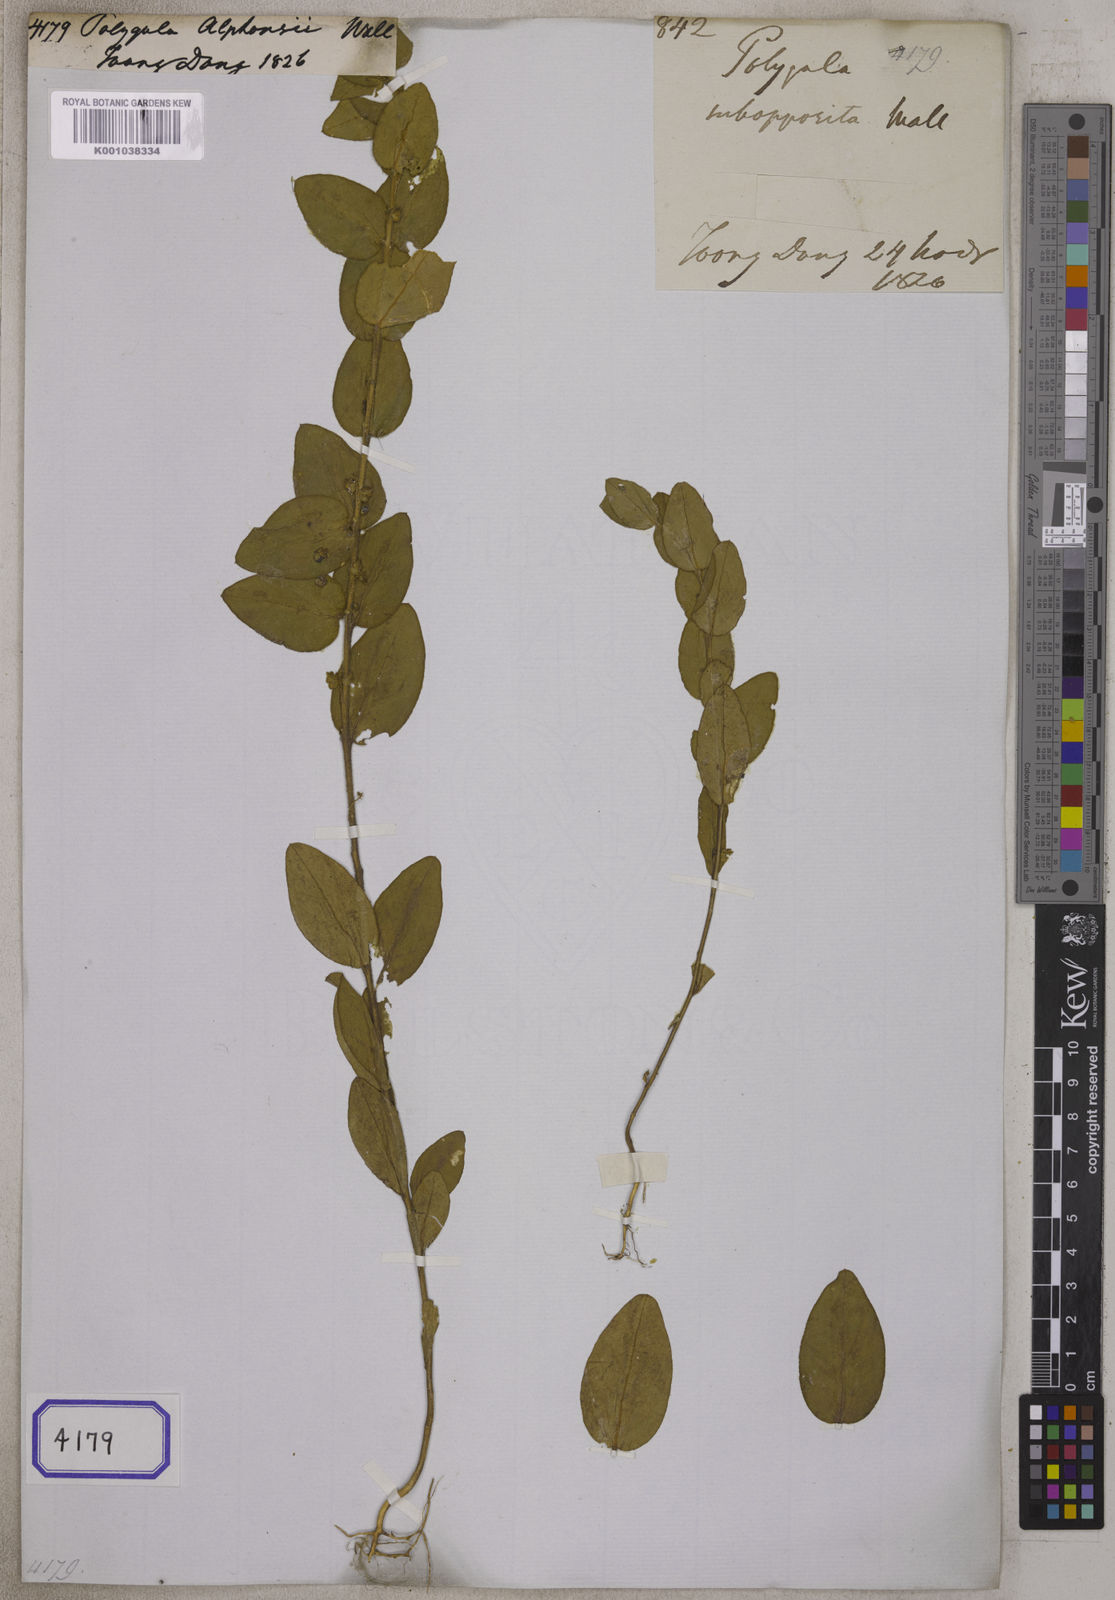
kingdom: Plantae
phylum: Tracheophyta
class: Magnoliopsida
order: Fabales
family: Polygalaceae
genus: Polygala
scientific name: Polygala alphonsii
